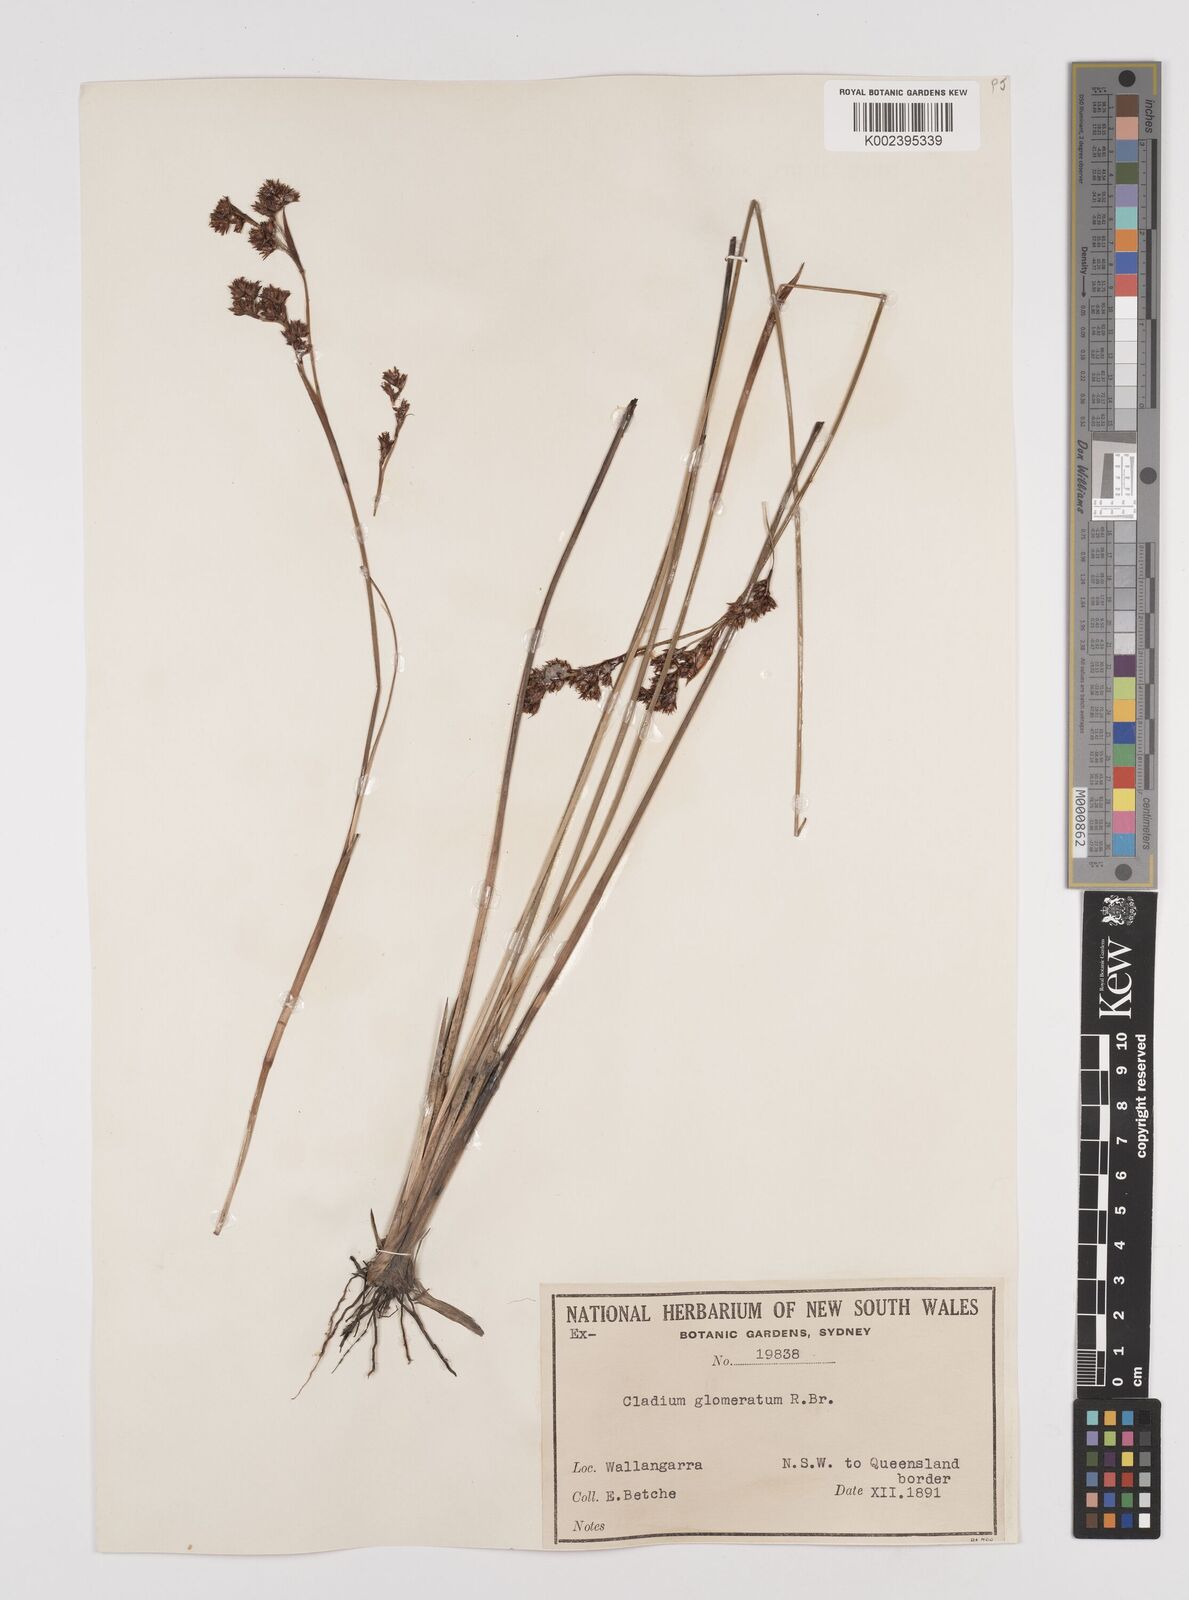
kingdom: Plantae
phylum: Tracheophyta
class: Liliopsida
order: Poales
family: Cyperaceae
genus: Machaerina
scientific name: Machaerina rubiginosa
